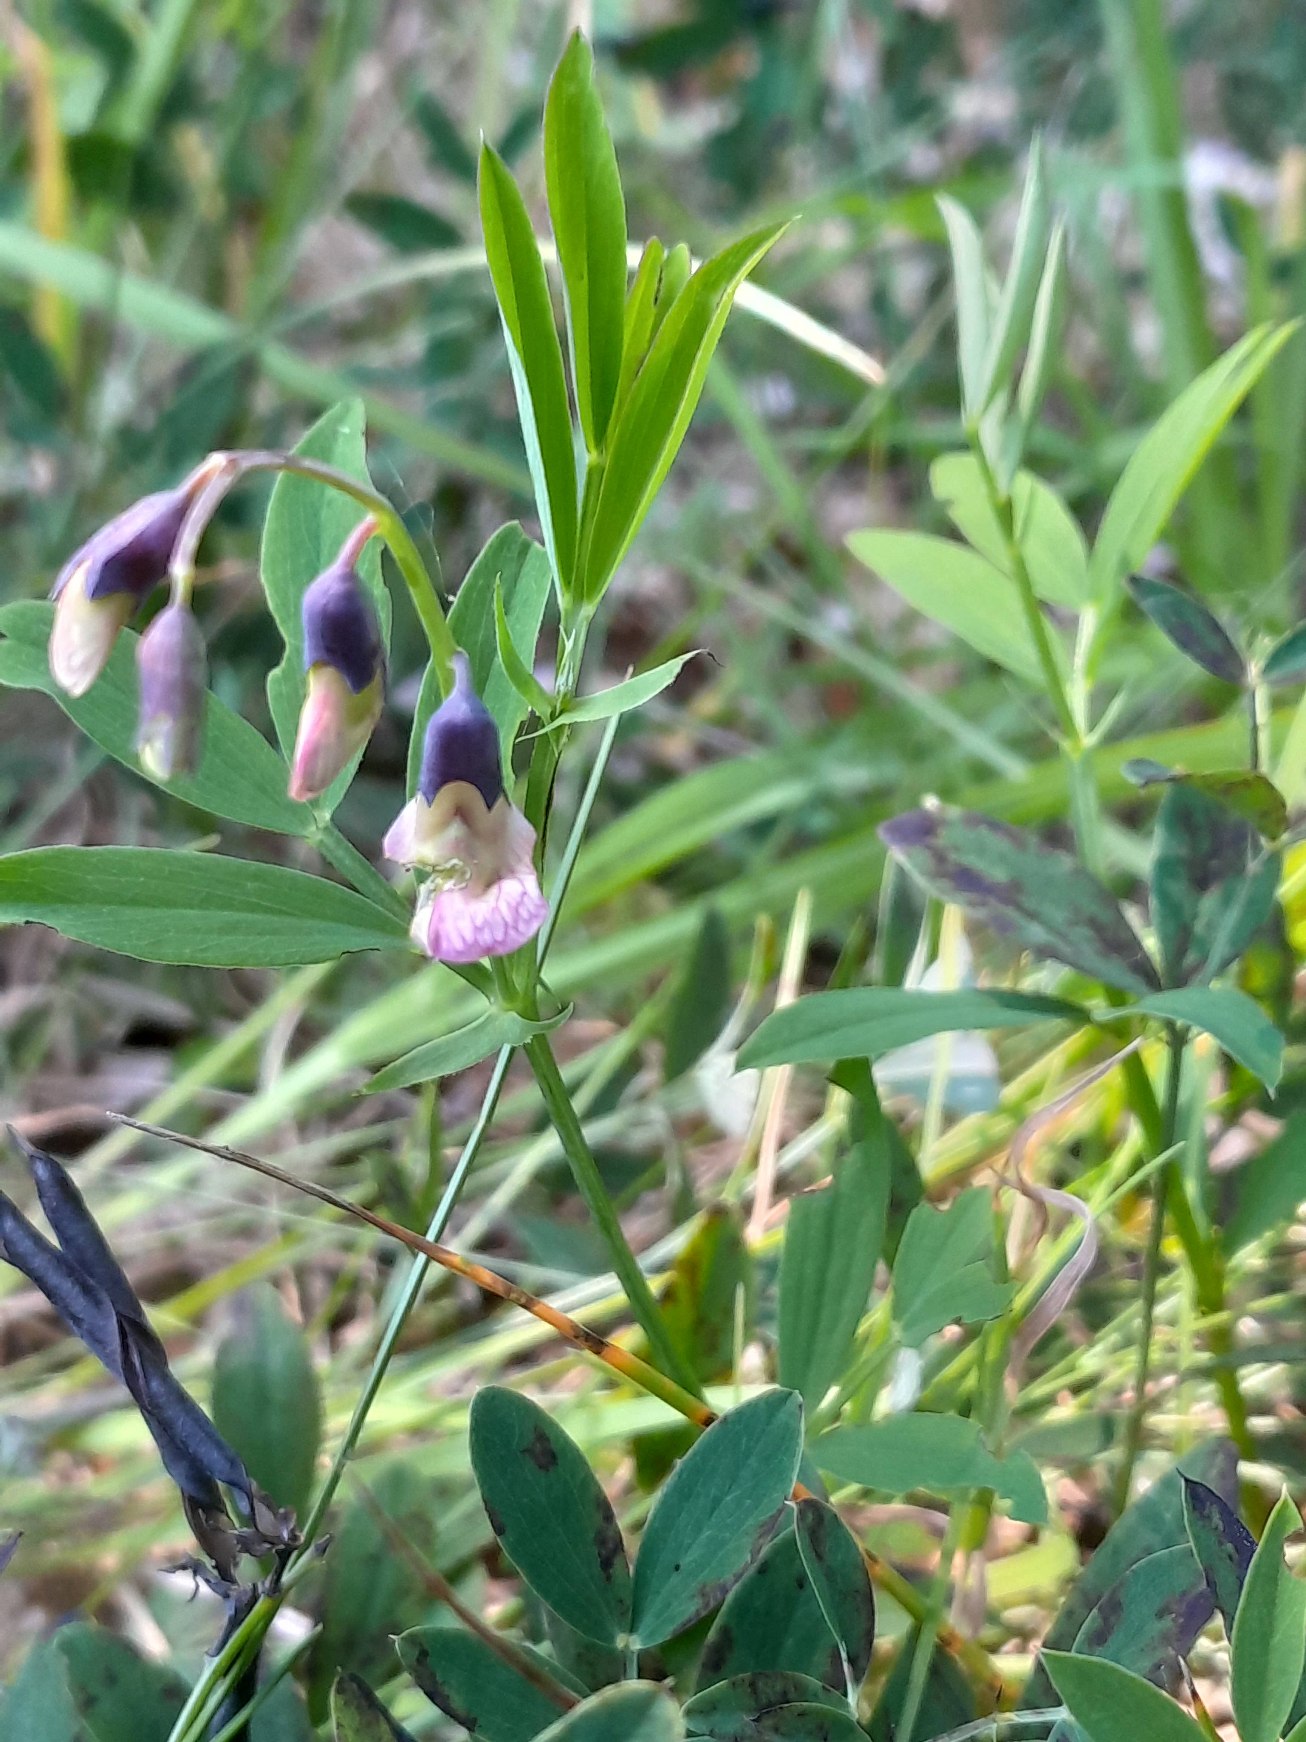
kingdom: Plantae
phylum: Tracheophyta
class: Magnoliopsida
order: Fabales
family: Fabaceae
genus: Lathyrus
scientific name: Lathyrus linifolius
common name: Krat-fladbælg
